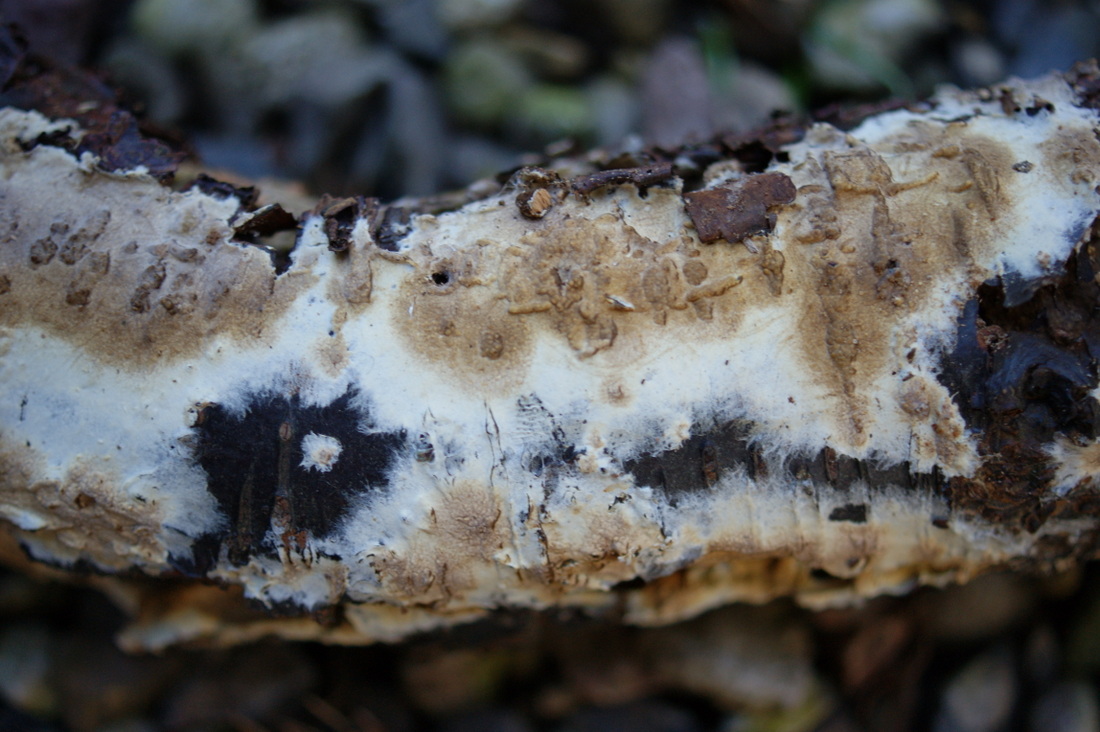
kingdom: Fungi
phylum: Basidiomycota
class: Agaricomycetes
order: Boletales
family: Coniophoraceae
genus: Coniophora
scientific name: Coniophora puteana
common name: gul tømmersvamp
